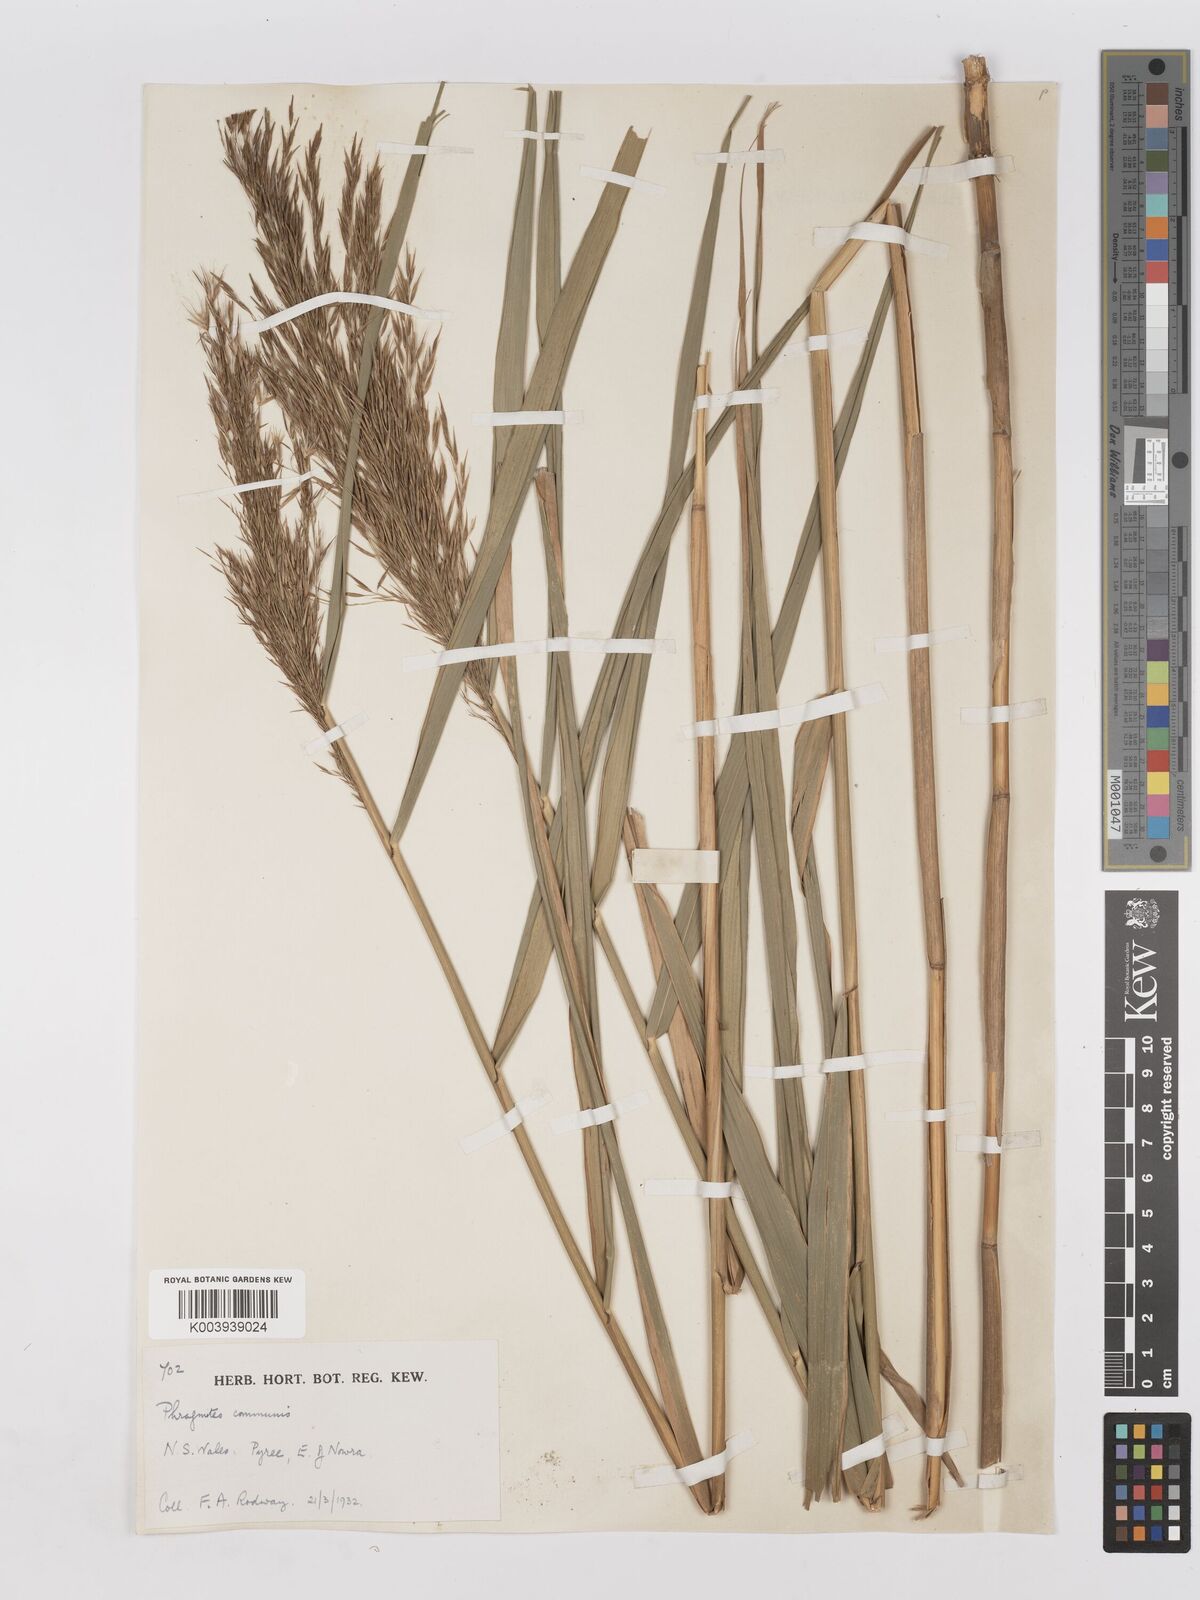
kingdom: Plantae
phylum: Tracheophyta
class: Liliopsida
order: Poales
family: Poaceae
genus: Phragmites
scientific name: Phragmites australis
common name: Common reed
